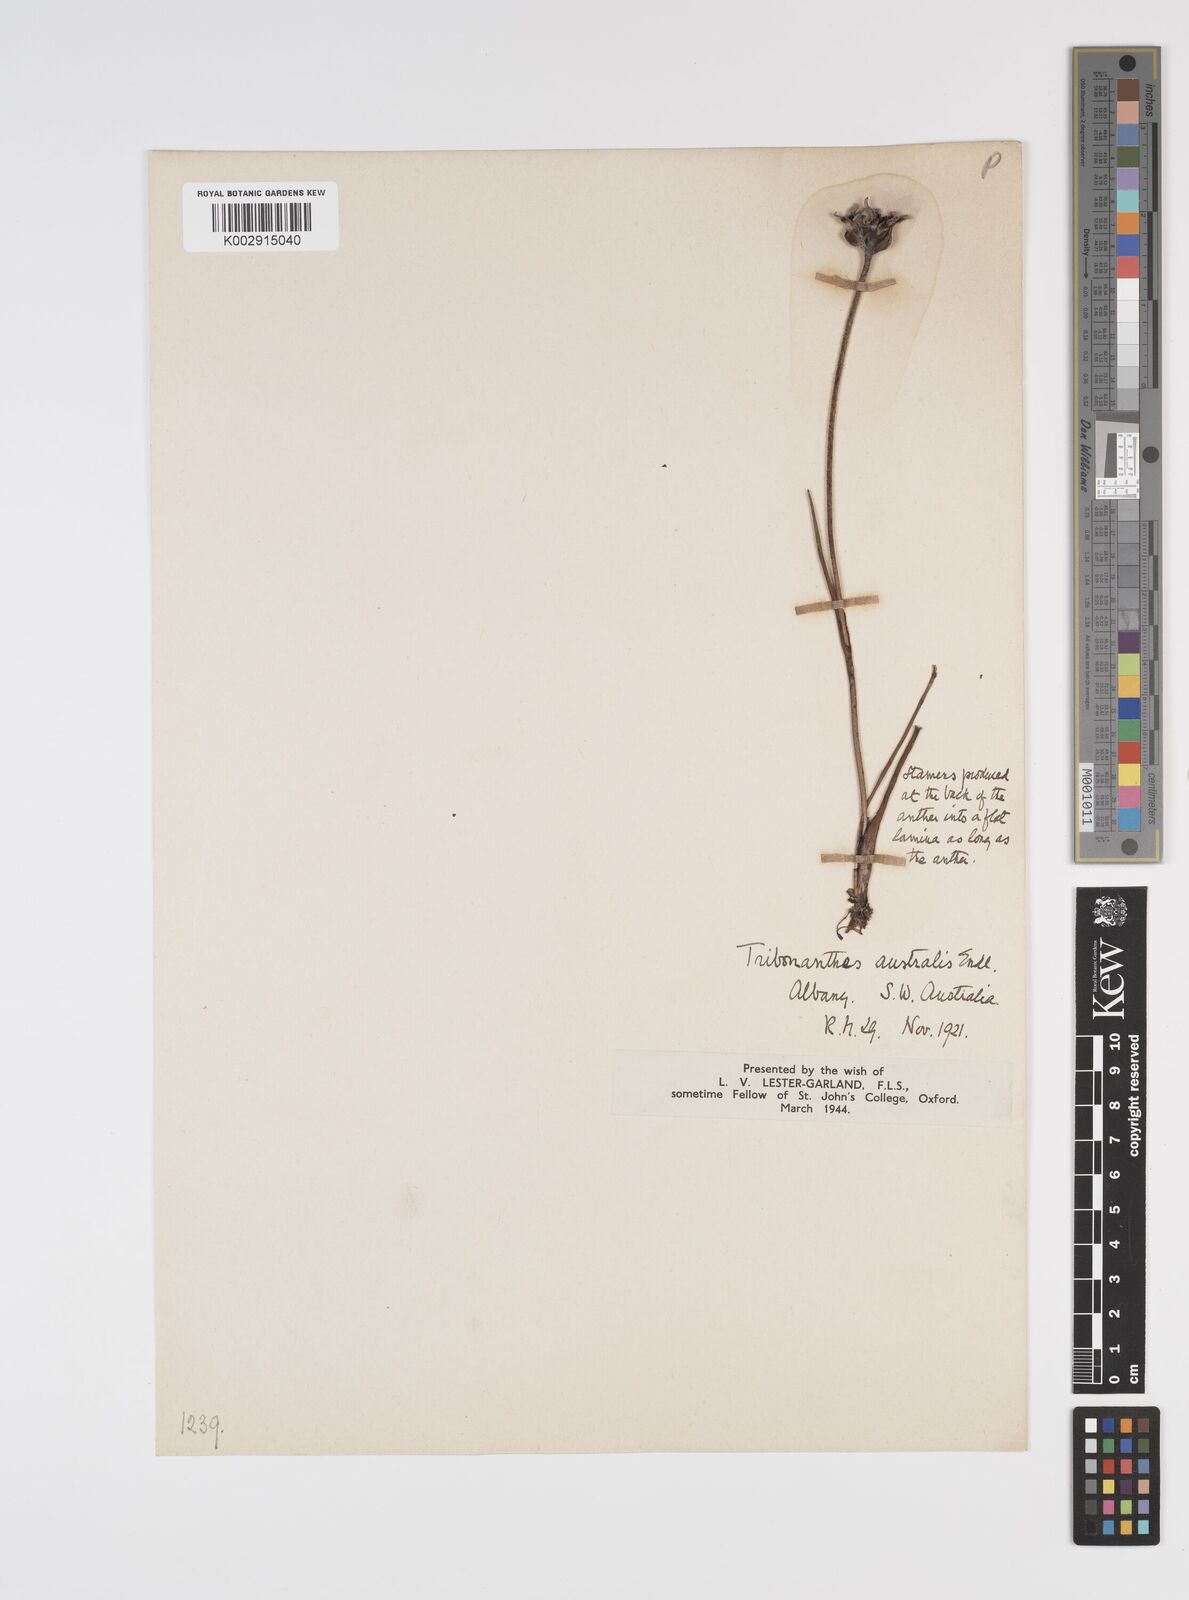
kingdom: Plantae
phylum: Tracheophyta
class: Liliopsida
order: Commelinales
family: Haemodoraceae
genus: Tribonanthes
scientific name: Tribonanthes australis
